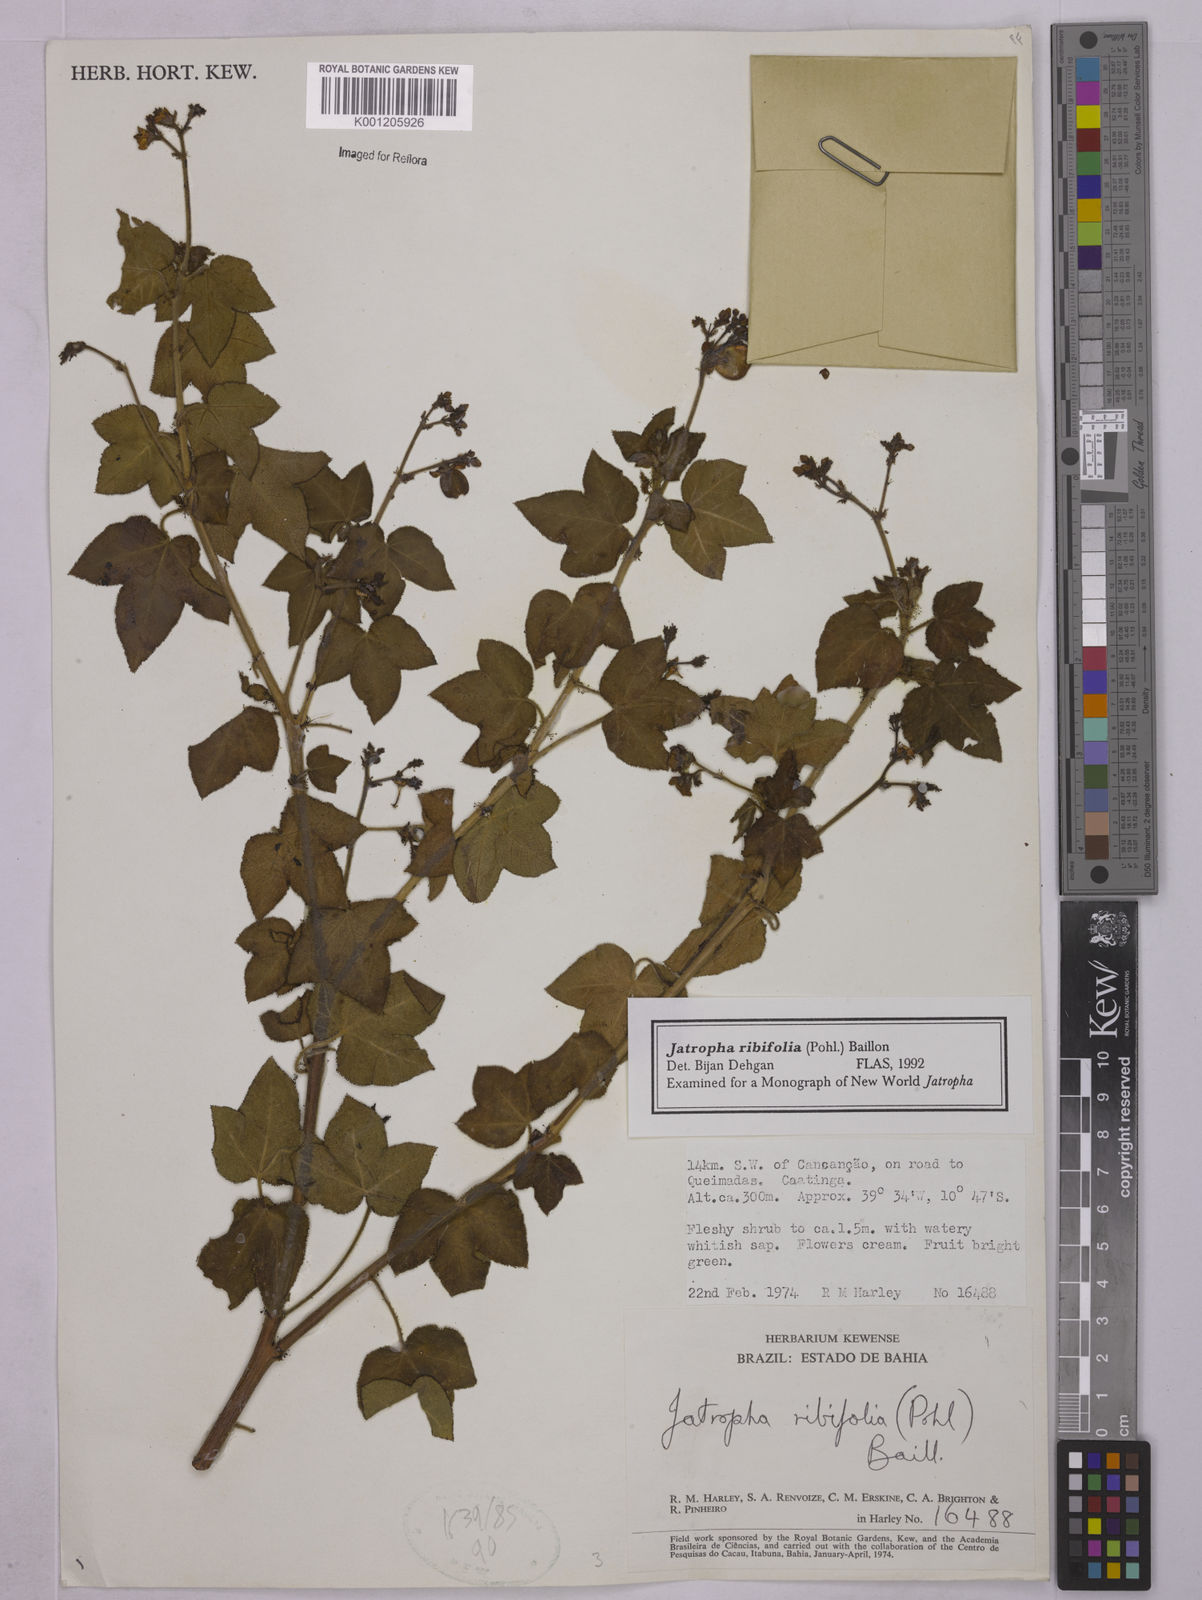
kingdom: Plantae
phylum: Tracheophyta
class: Magnoliopsida
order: Malpighiales
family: Euphorbiaceae
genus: Jatropha
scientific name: Jatropha ribifolia
